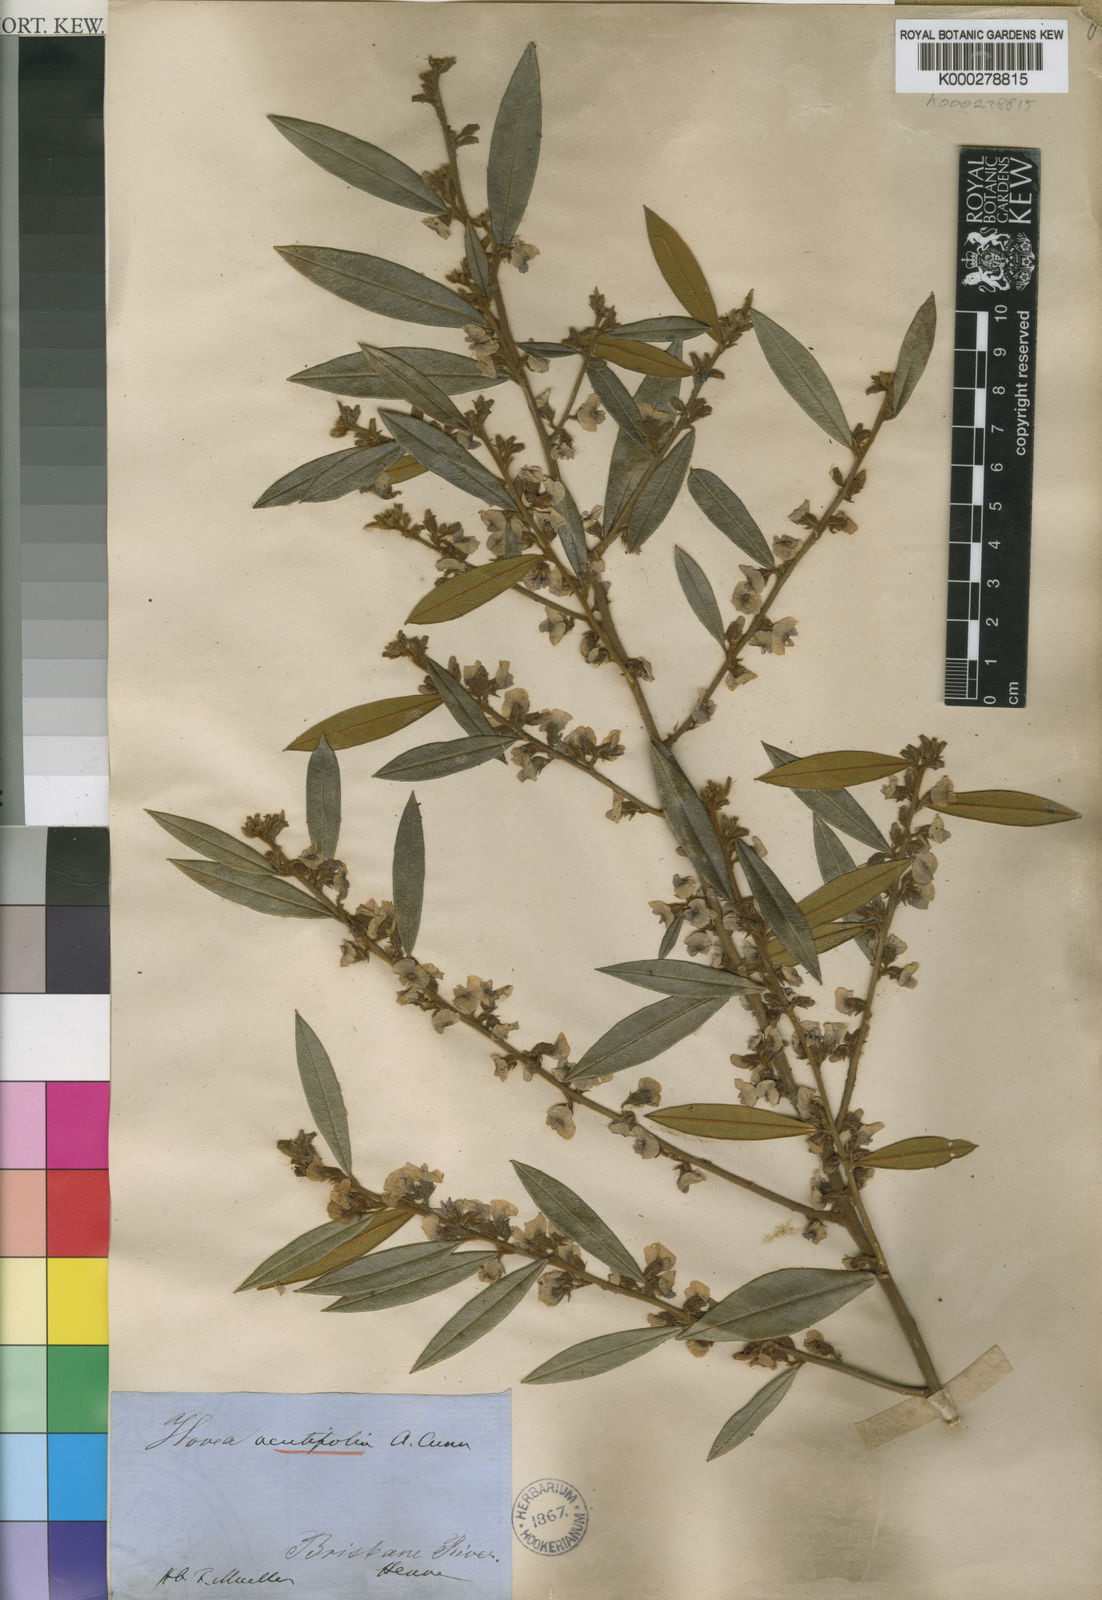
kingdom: Plantae
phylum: Tracheophyta
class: Magnoliopsida
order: Fabales
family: Fabaceae
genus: Hovea
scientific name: Hovea acutifolia
